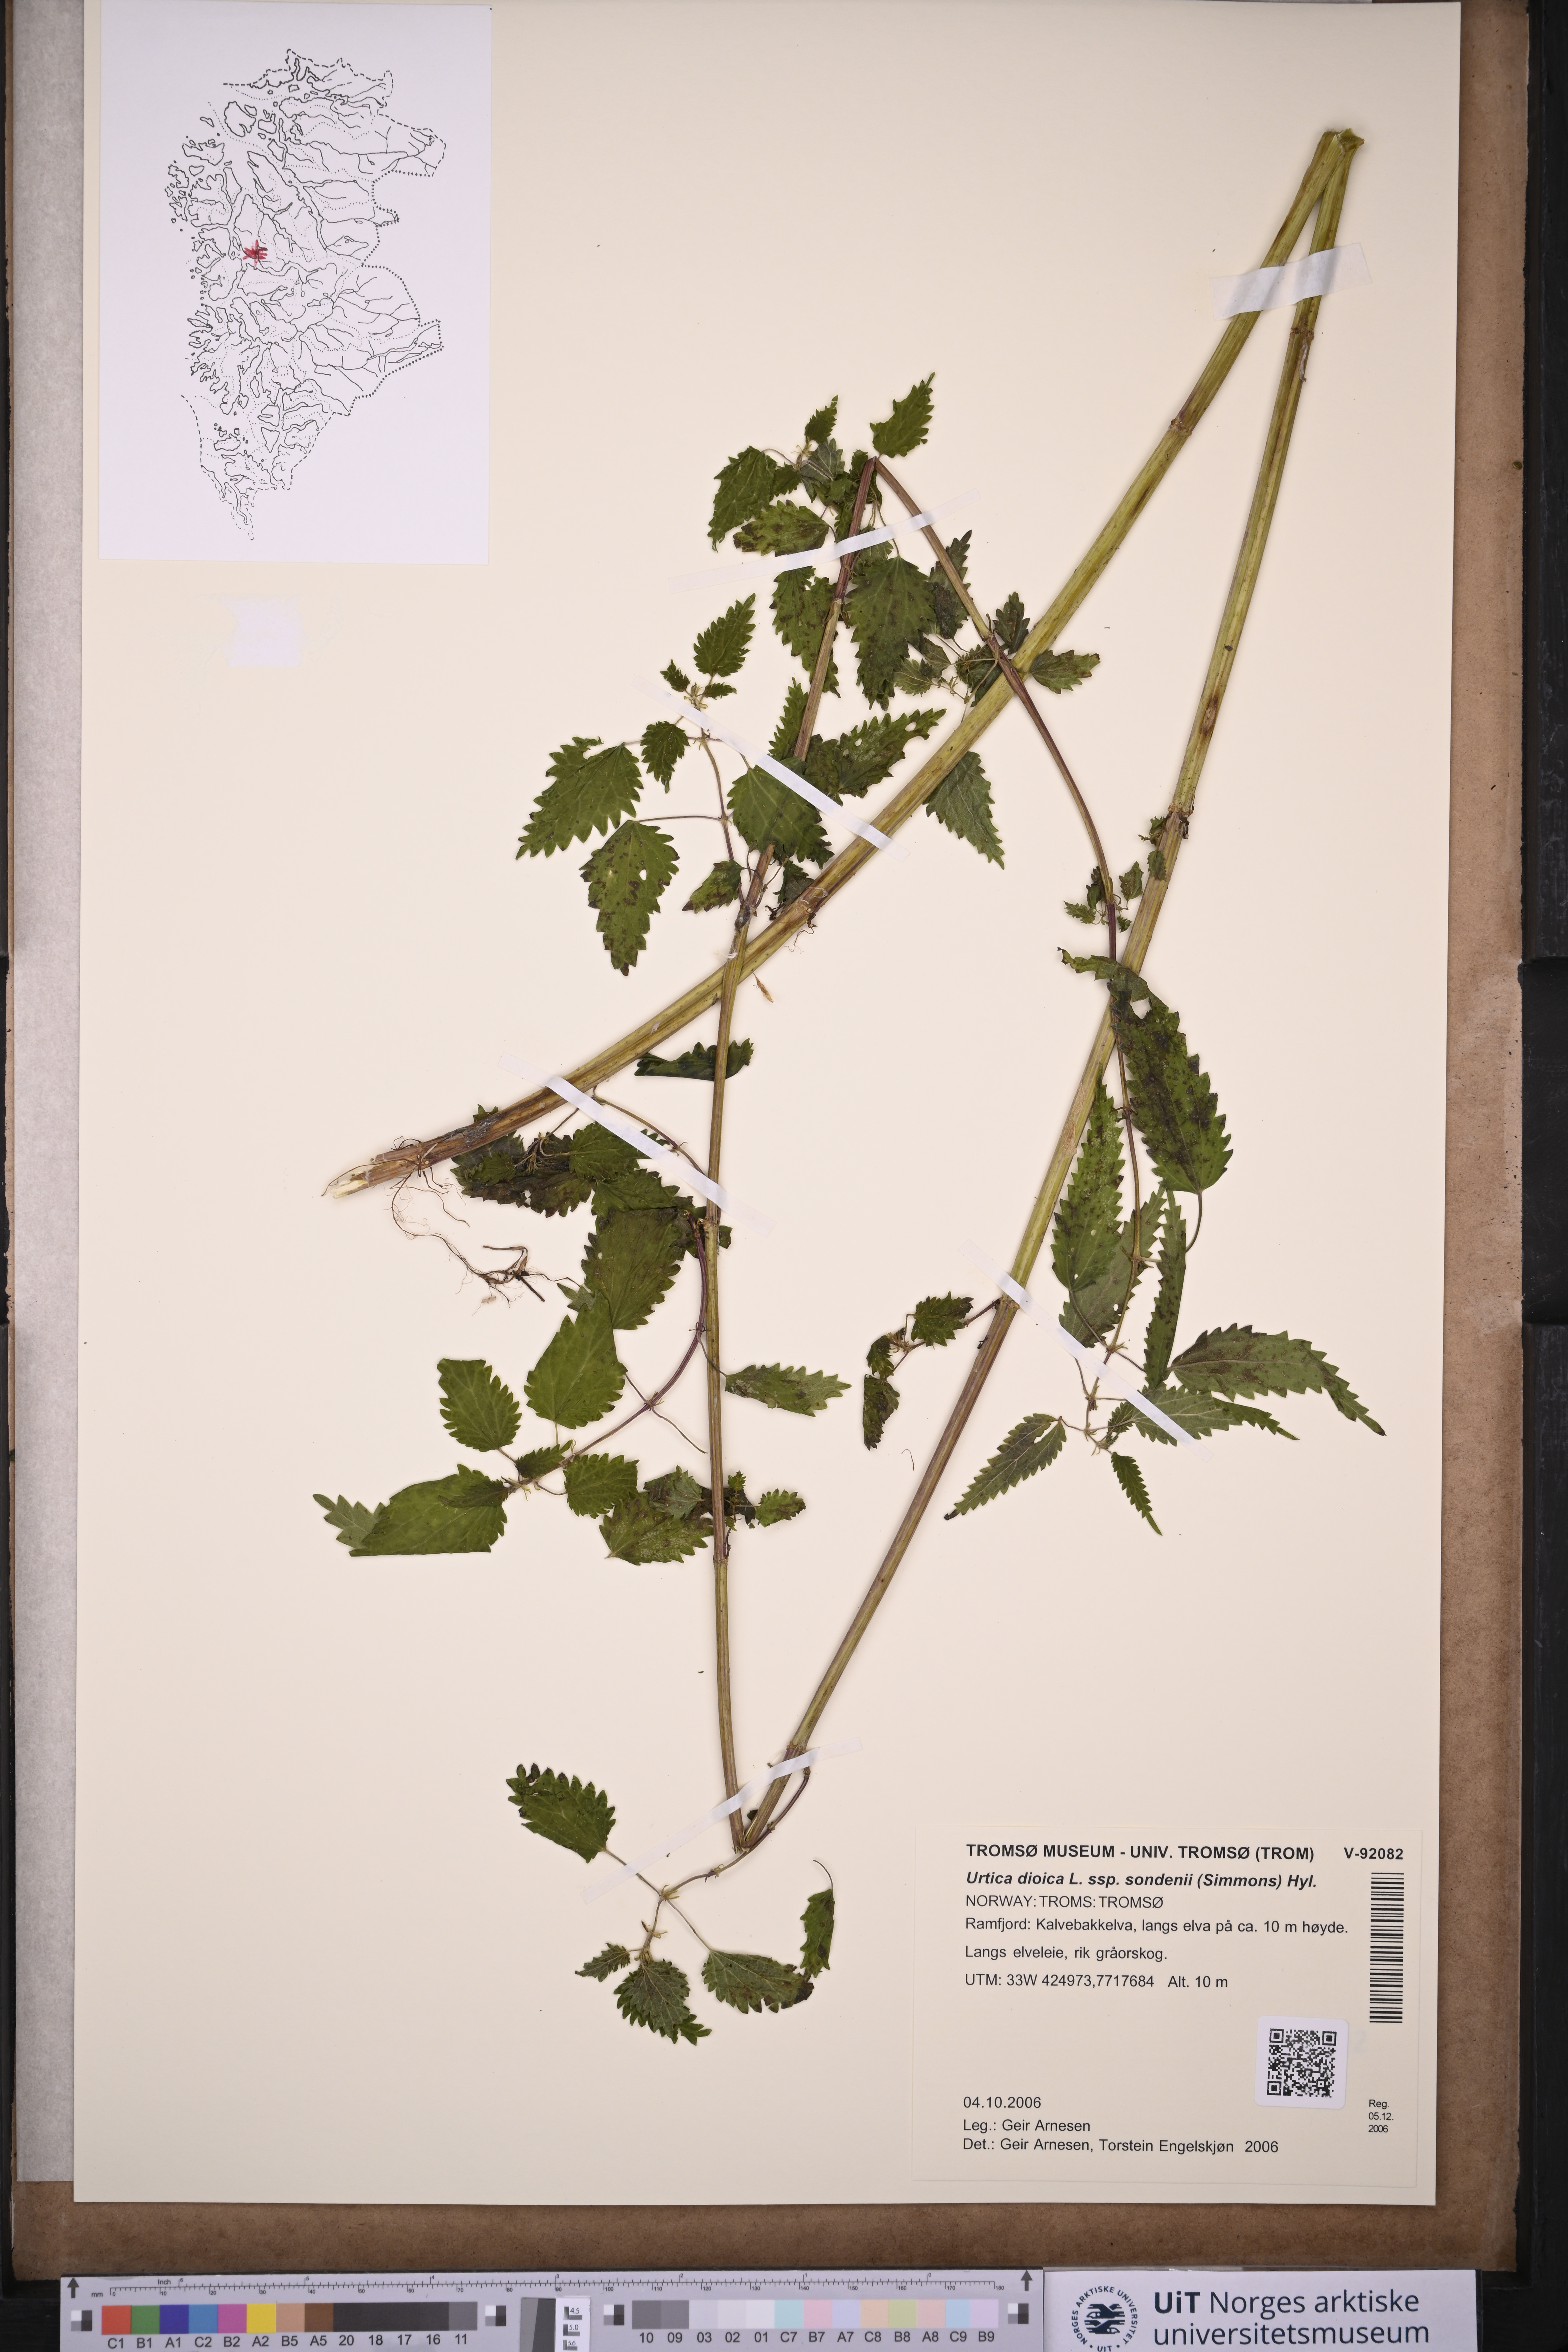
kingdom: Plantae
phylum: Tracheophyta
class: Magnoliopsida
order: Rosales
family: Urticaceae
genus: Urtica
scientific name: Urtica dioica
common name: Common nettle
